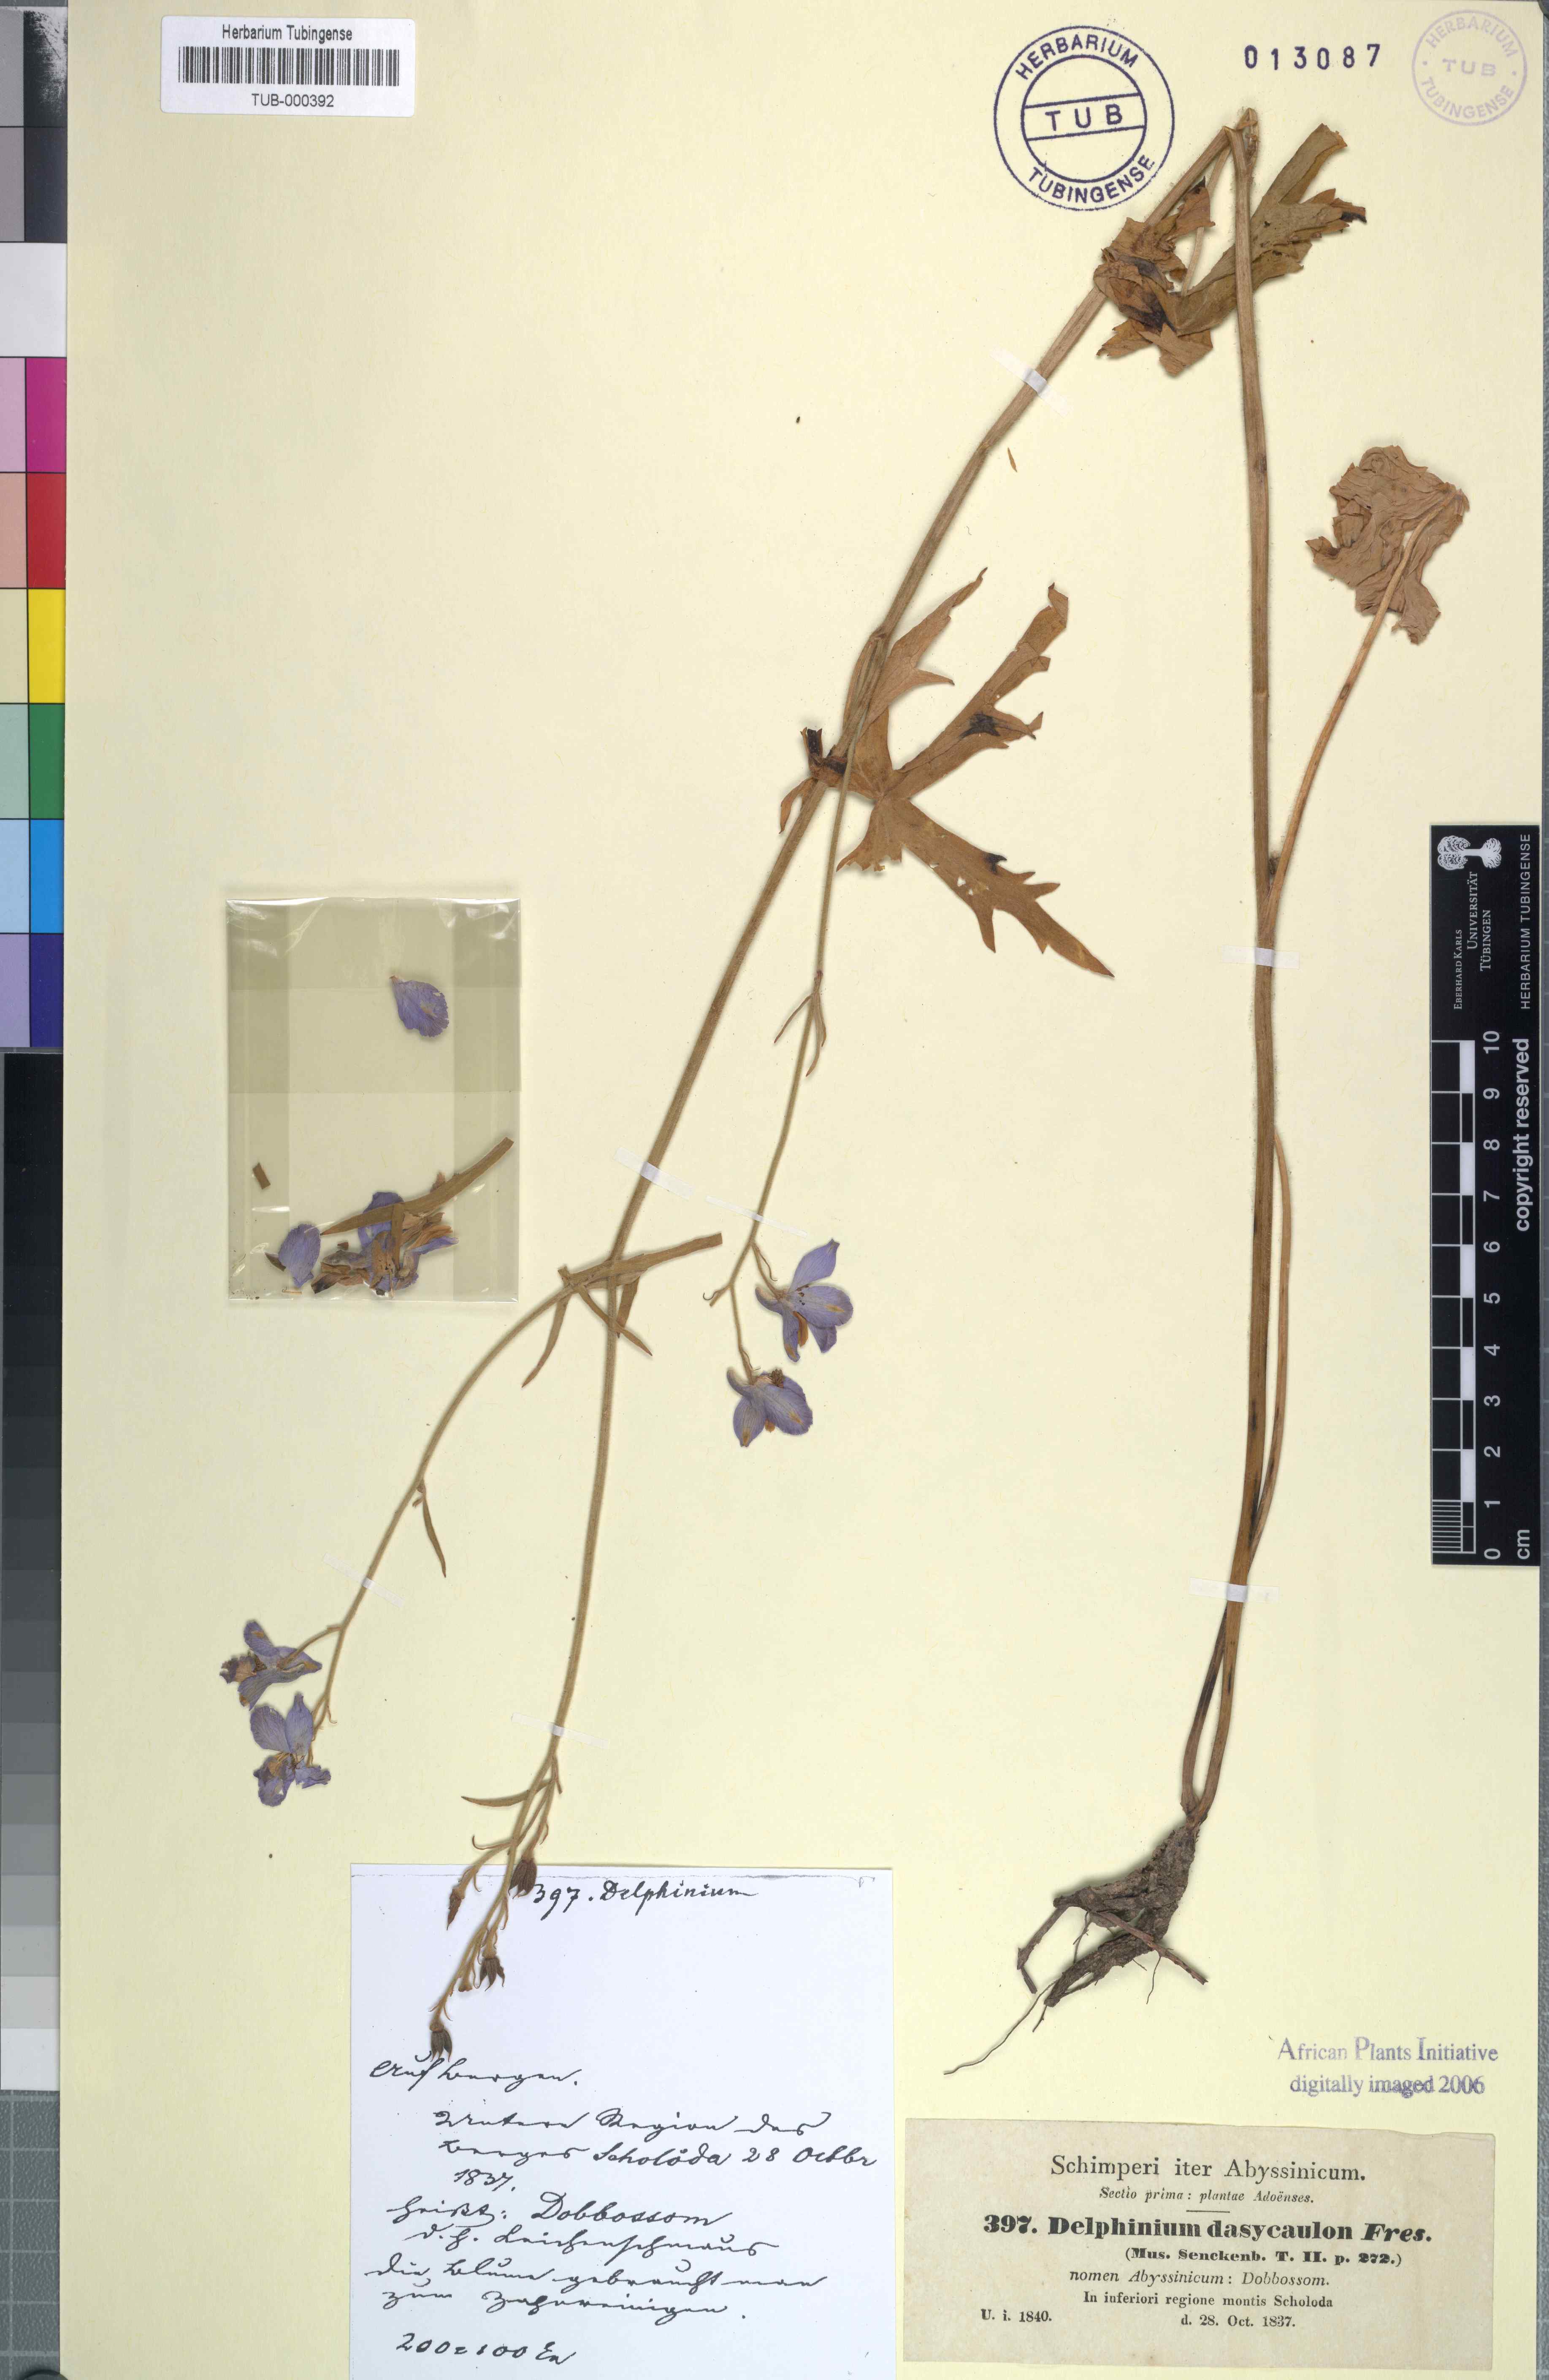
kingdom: Plantae
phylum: Tracheophyta
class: Magnoliopsida
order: Ranunculales
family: Ranunculaceae
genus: Delphinium
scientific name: Delphinium dasycaulon
